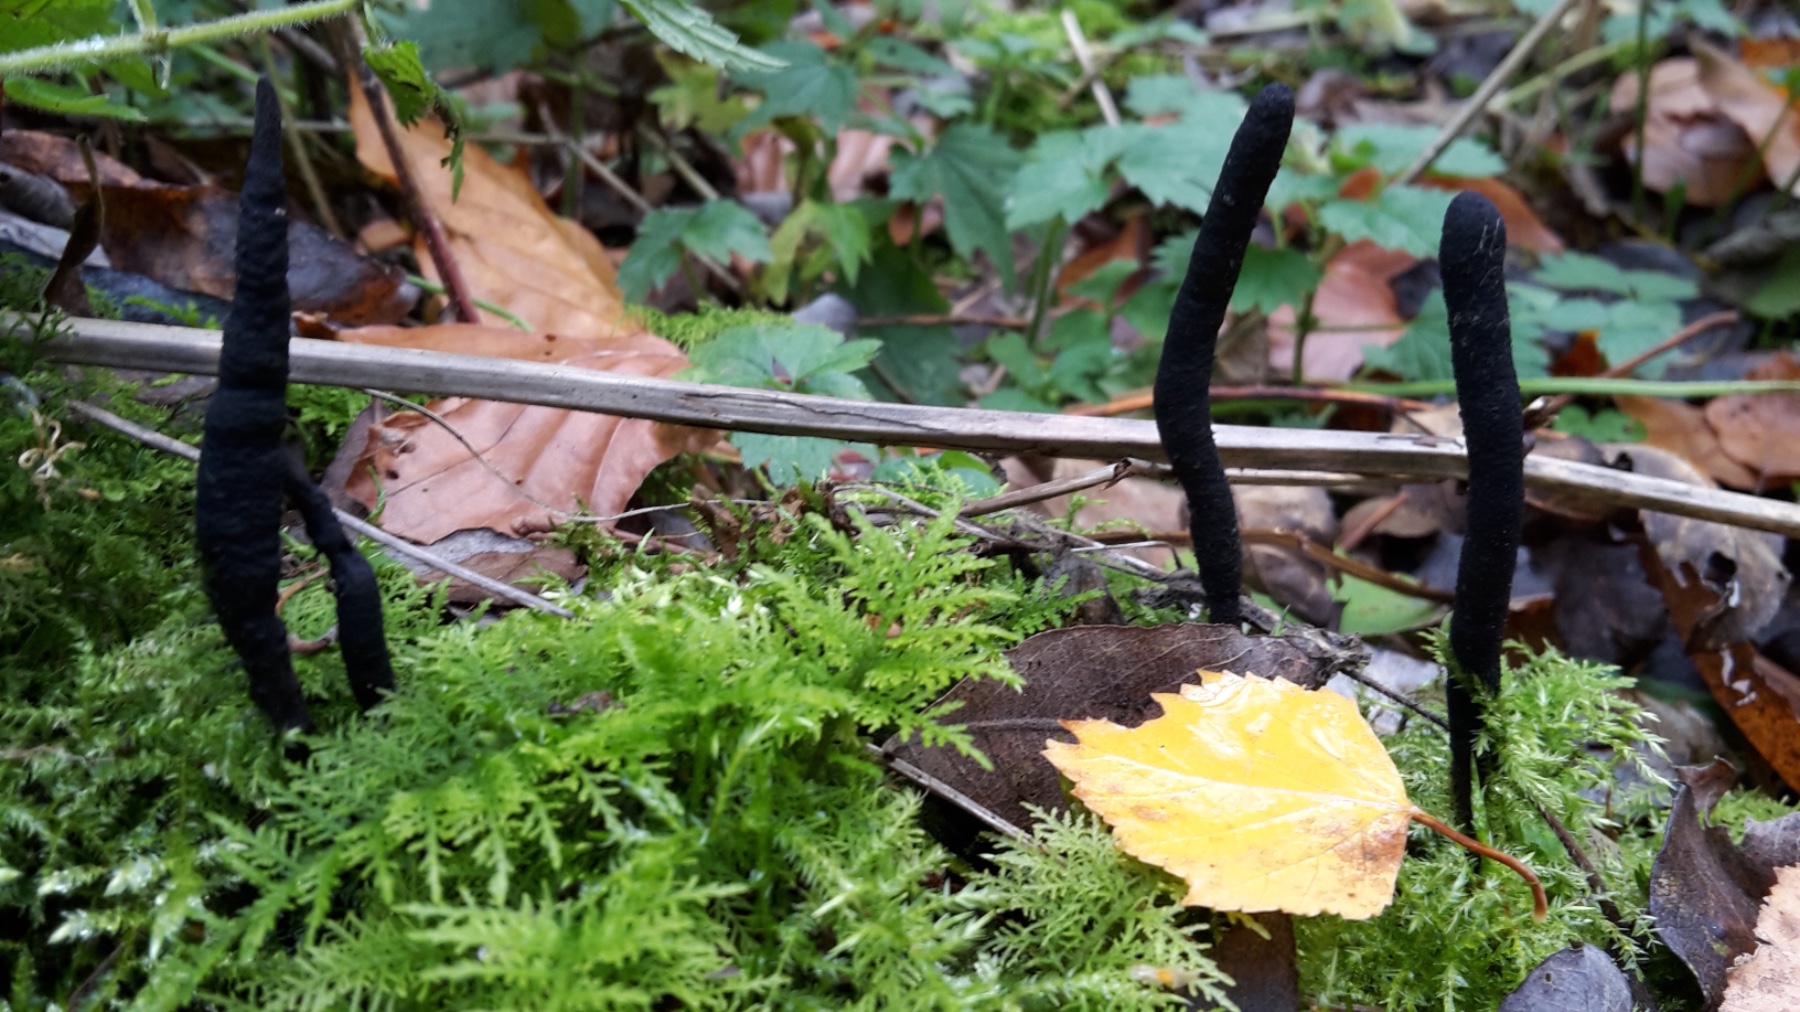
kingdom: Fungi
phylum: Ascomycota
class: Sordariomycetes
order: Xylariales
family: Xylariaceae
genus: Xylaria
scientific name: Xylaria longipes
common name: slank stødsvamp
